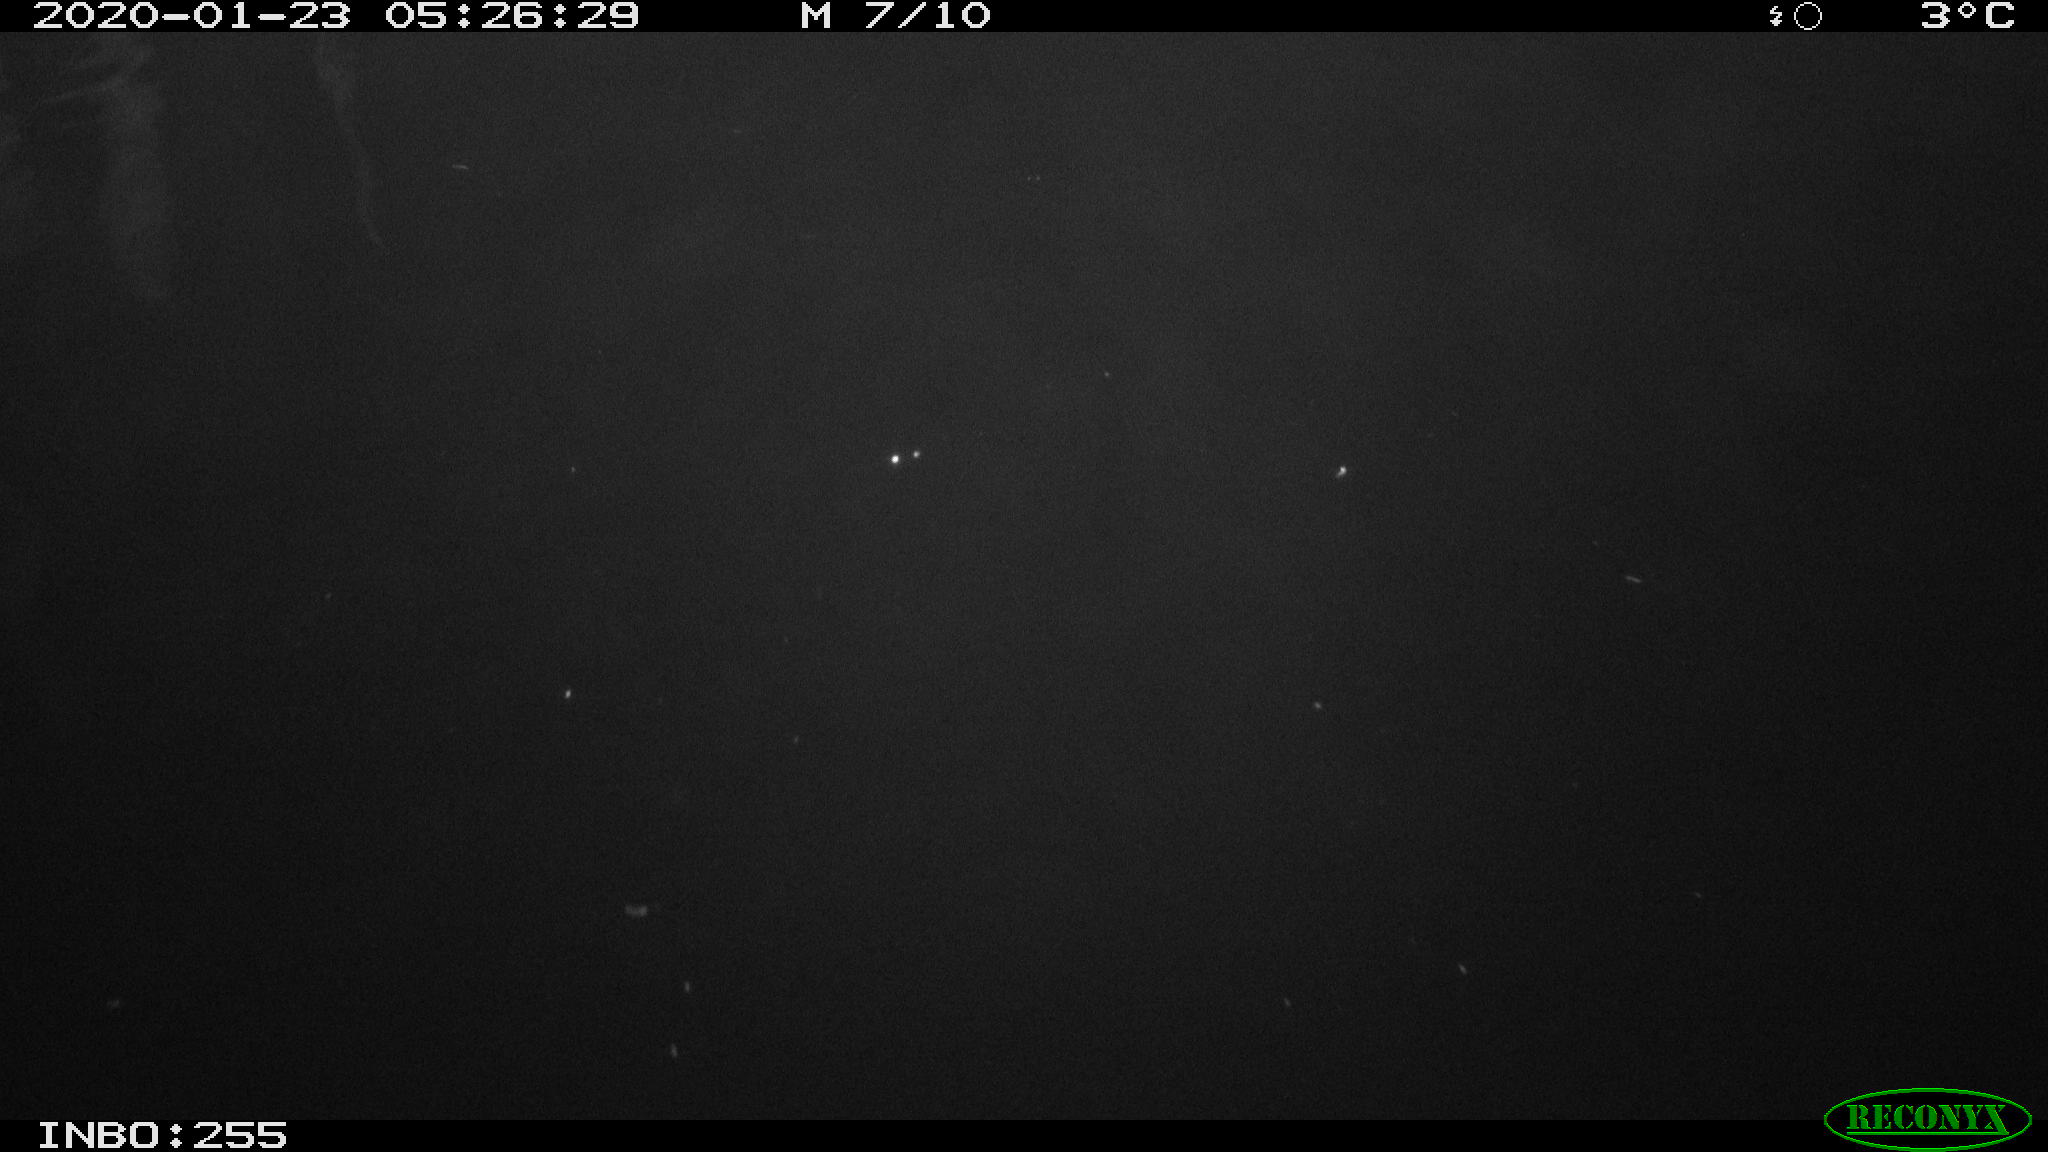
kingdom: Animalia
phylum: Chordata
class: Mammalia
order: Rodentia
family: Cricetidae
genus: Ondatra
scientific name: Ondatra zibethicus
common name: Muskrat
